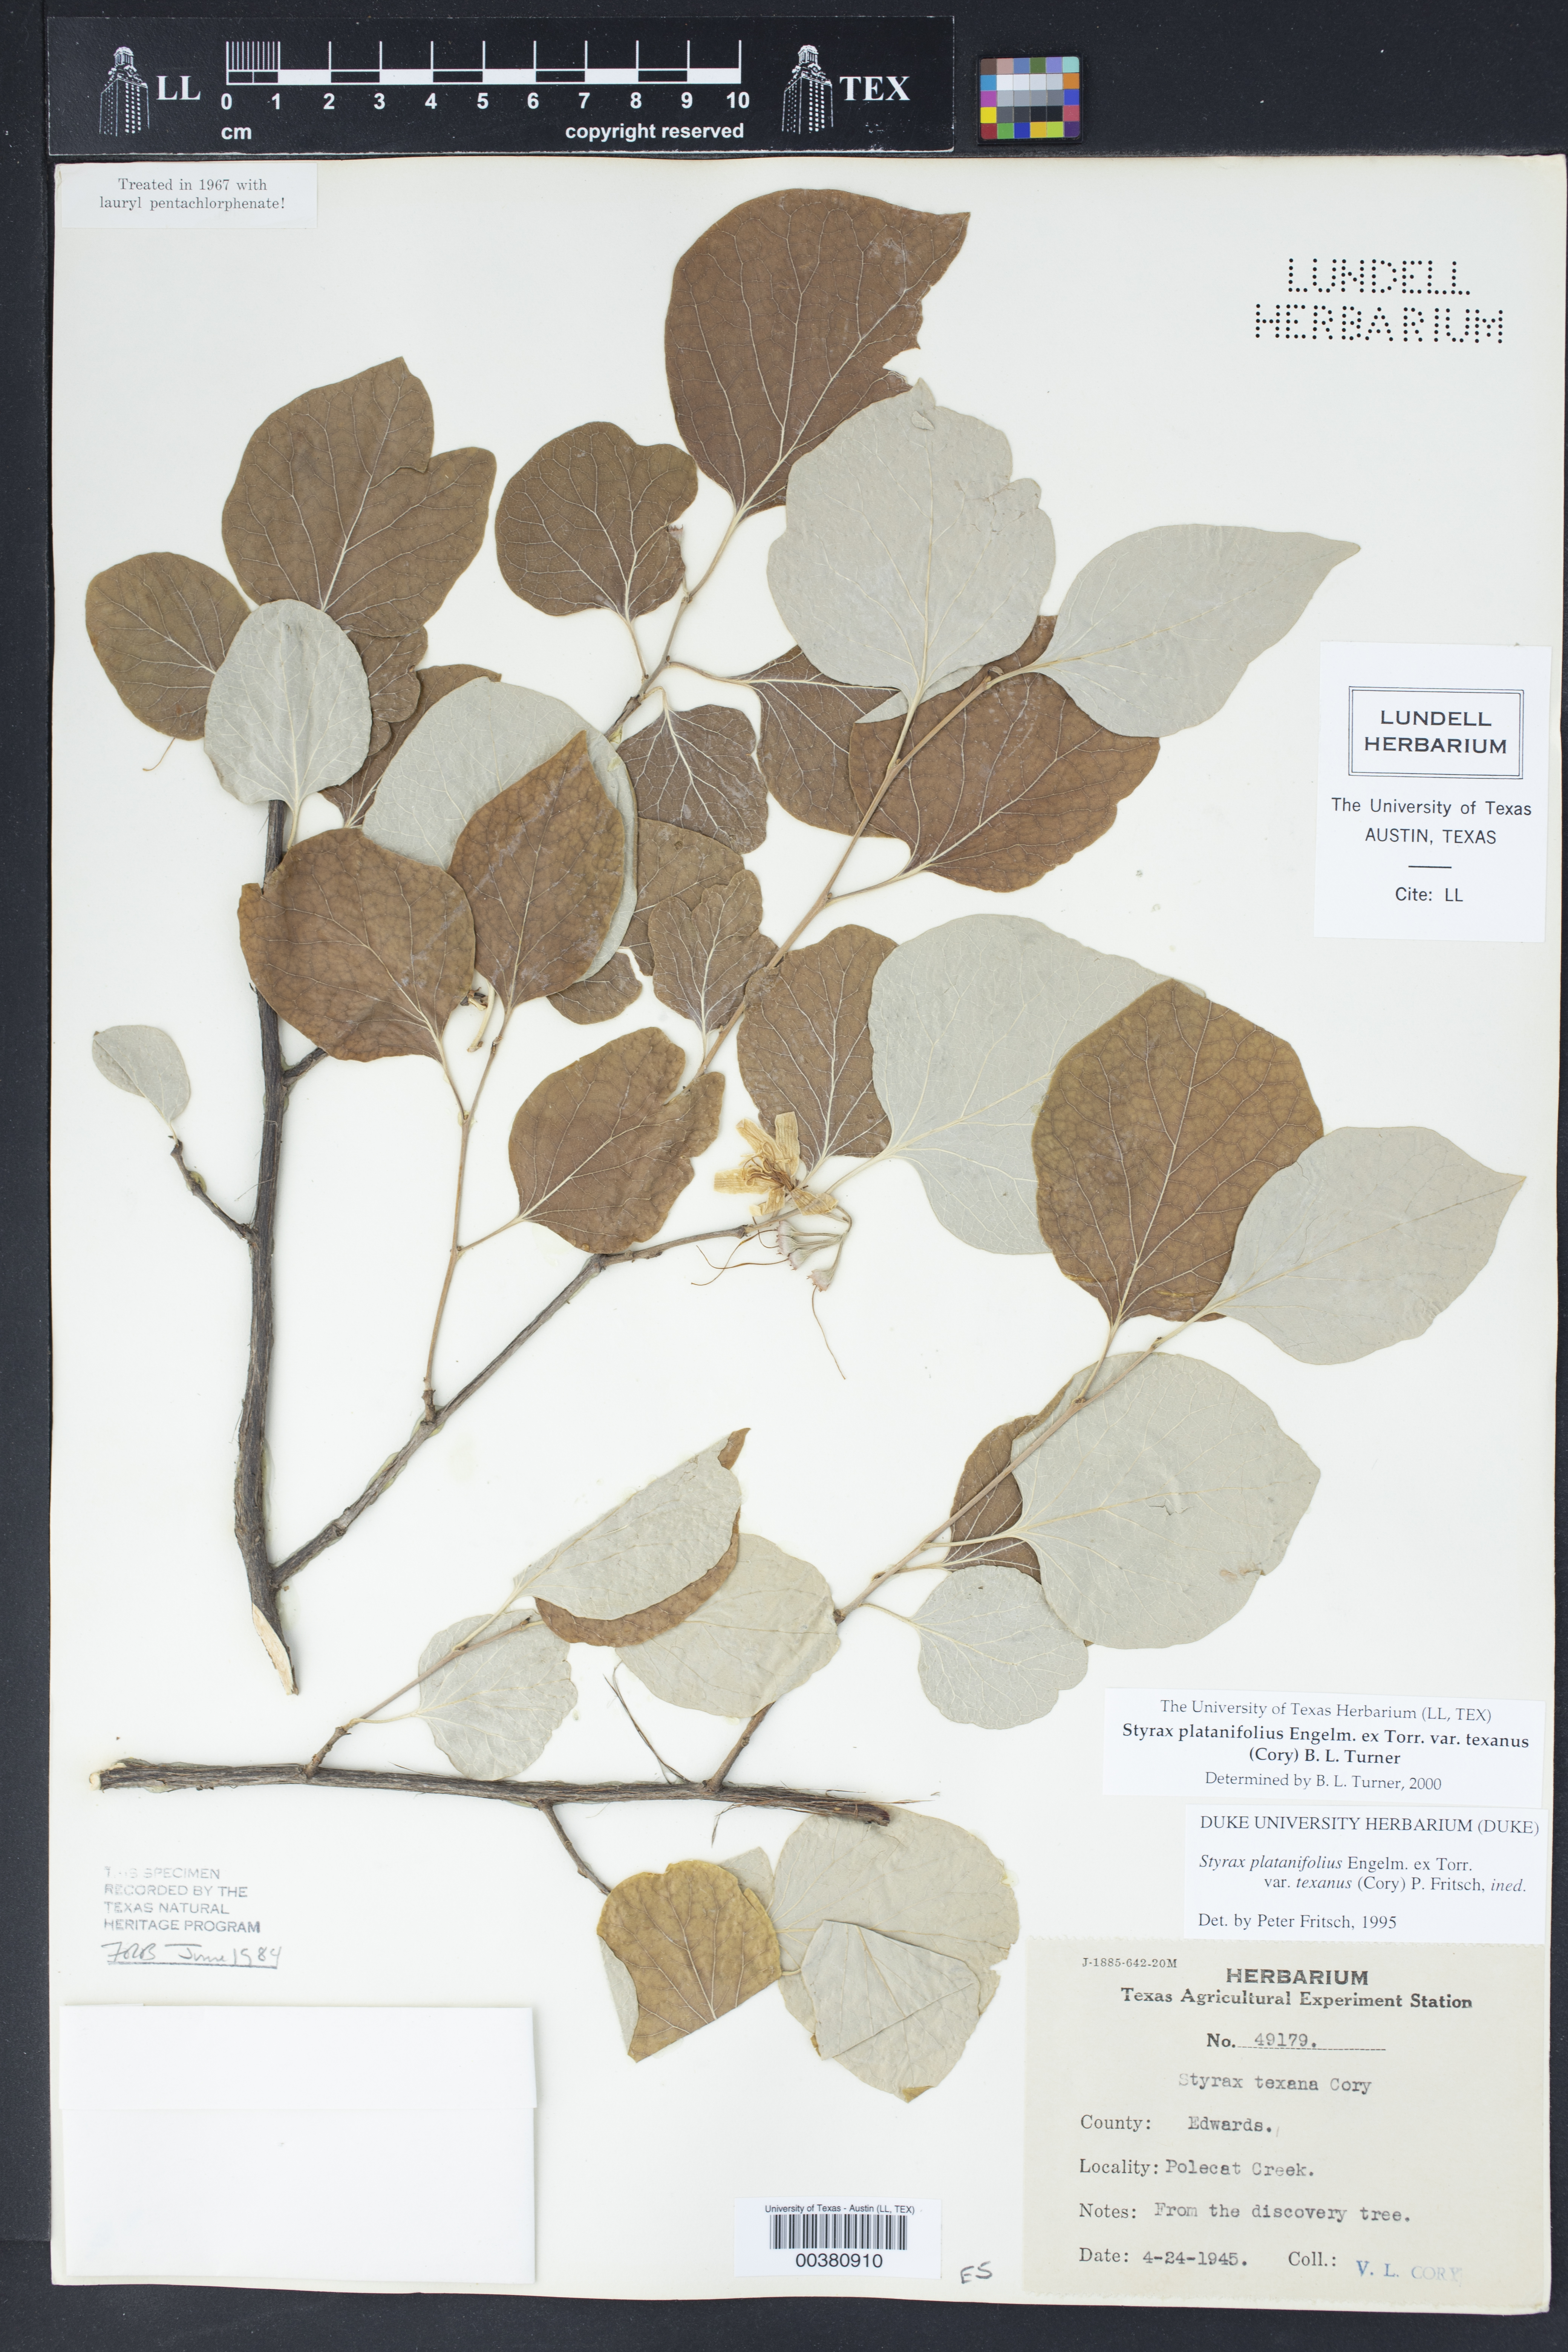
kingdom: Plantae
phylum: Tracheophyta
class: Magnoliopsida
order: Ericales
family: Styracaceae
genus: Styrax
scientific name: Styrax platanifolius
